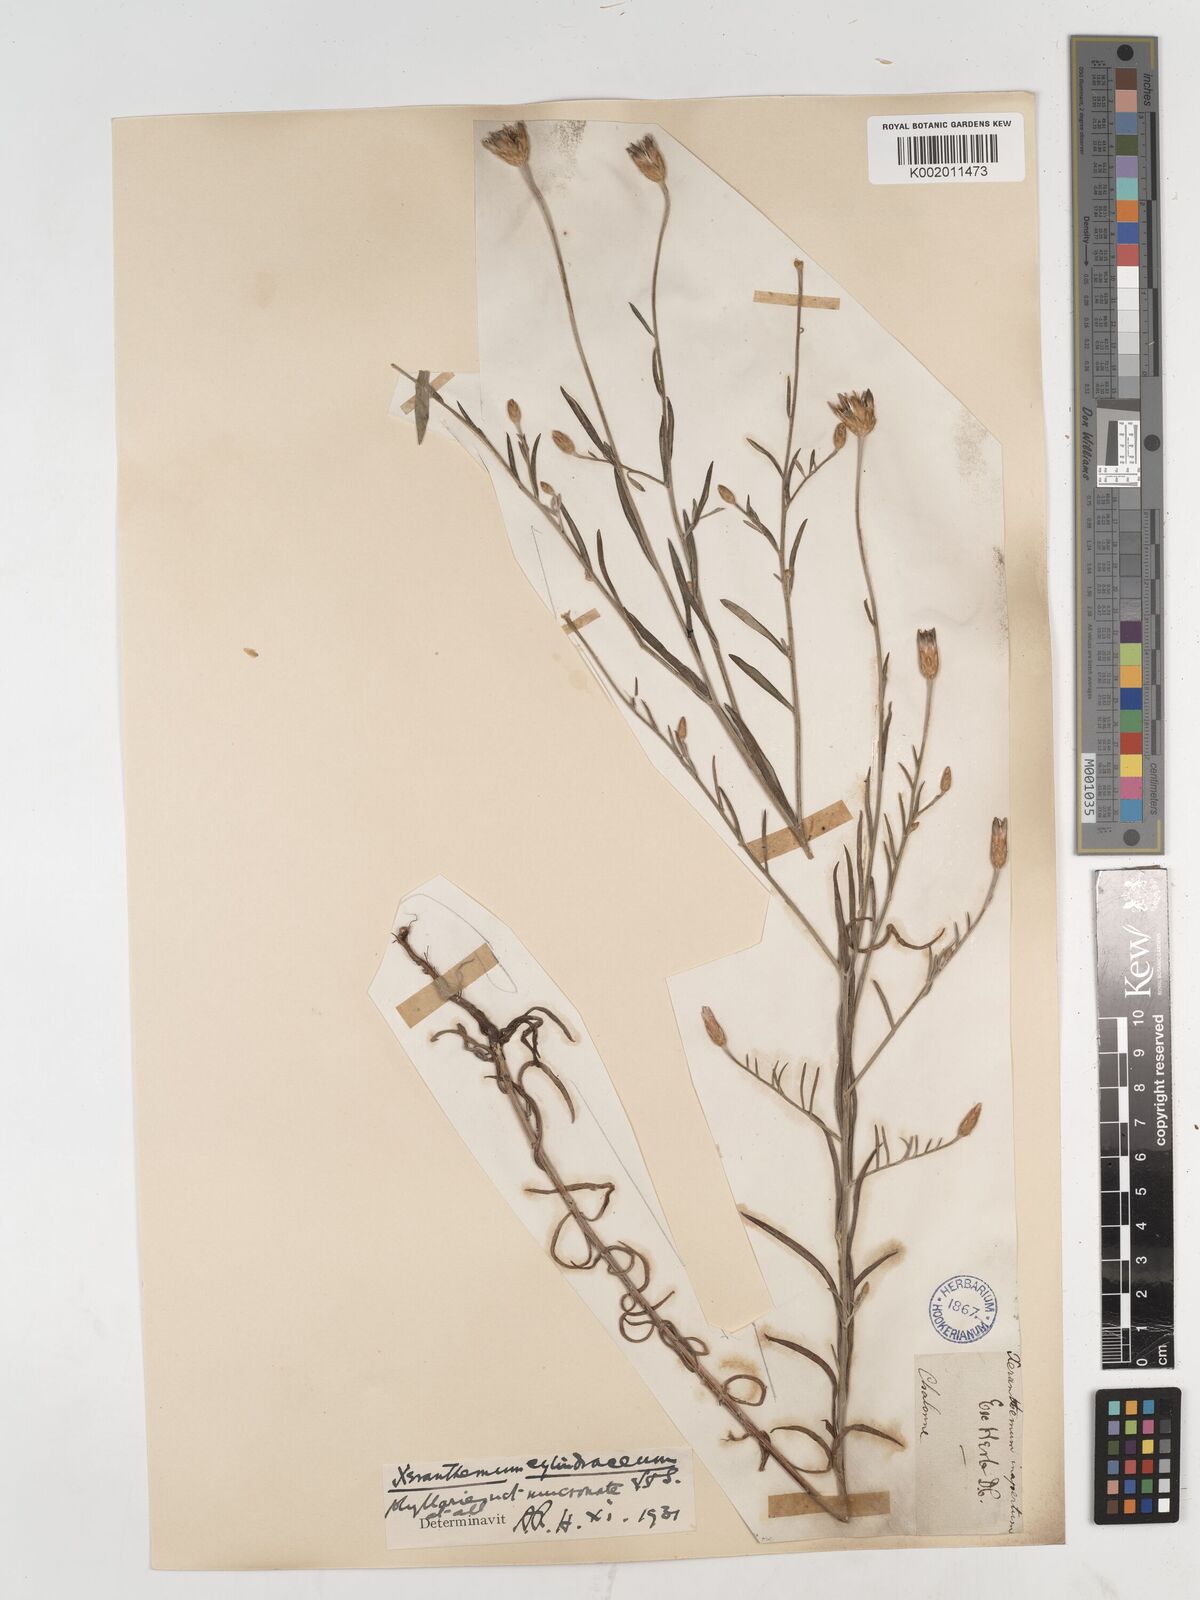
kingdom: Plantae
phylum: Tracheophyta
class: Magnoliopsida
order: Asterales
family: Asteraceae
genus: Xeranthemum
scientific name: Xeranthemum cylindraceum
